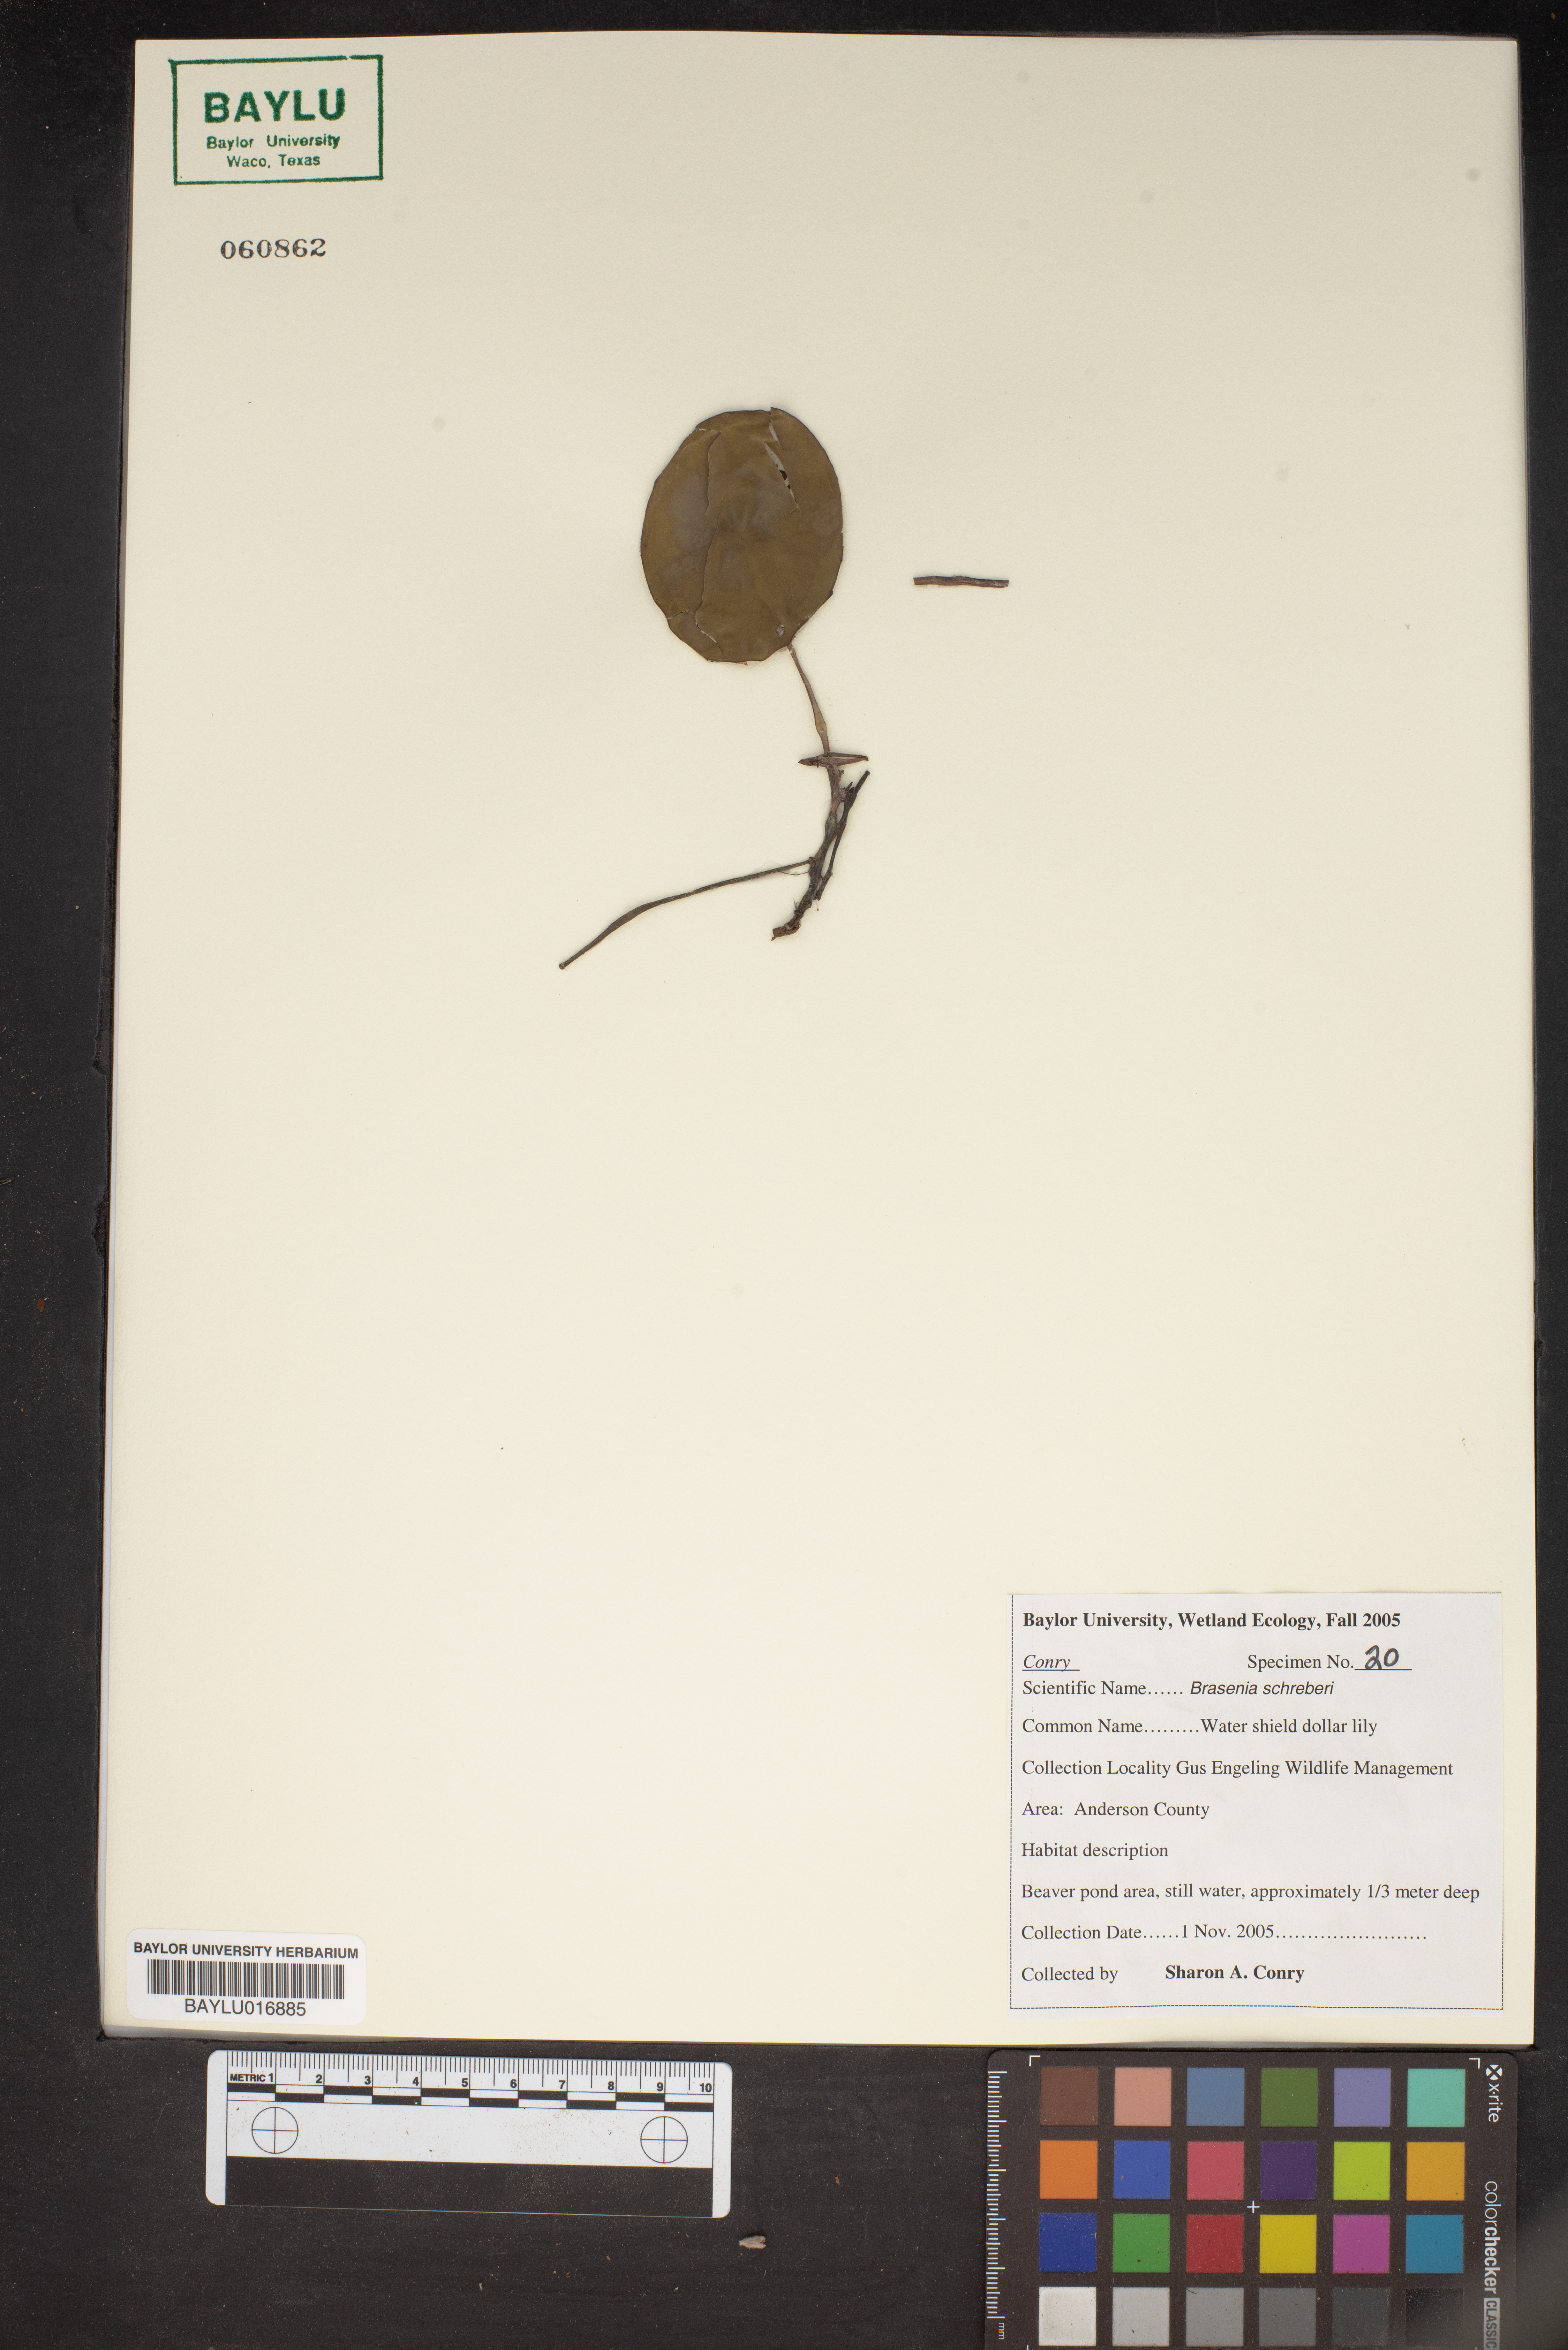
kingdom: Plantae
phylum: Tracheophyta
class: Magnoliopsida
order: Nymphaeales
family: Cabombaceae
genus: Brasenia
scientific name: Brasenia schreberi
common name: Water-shield
